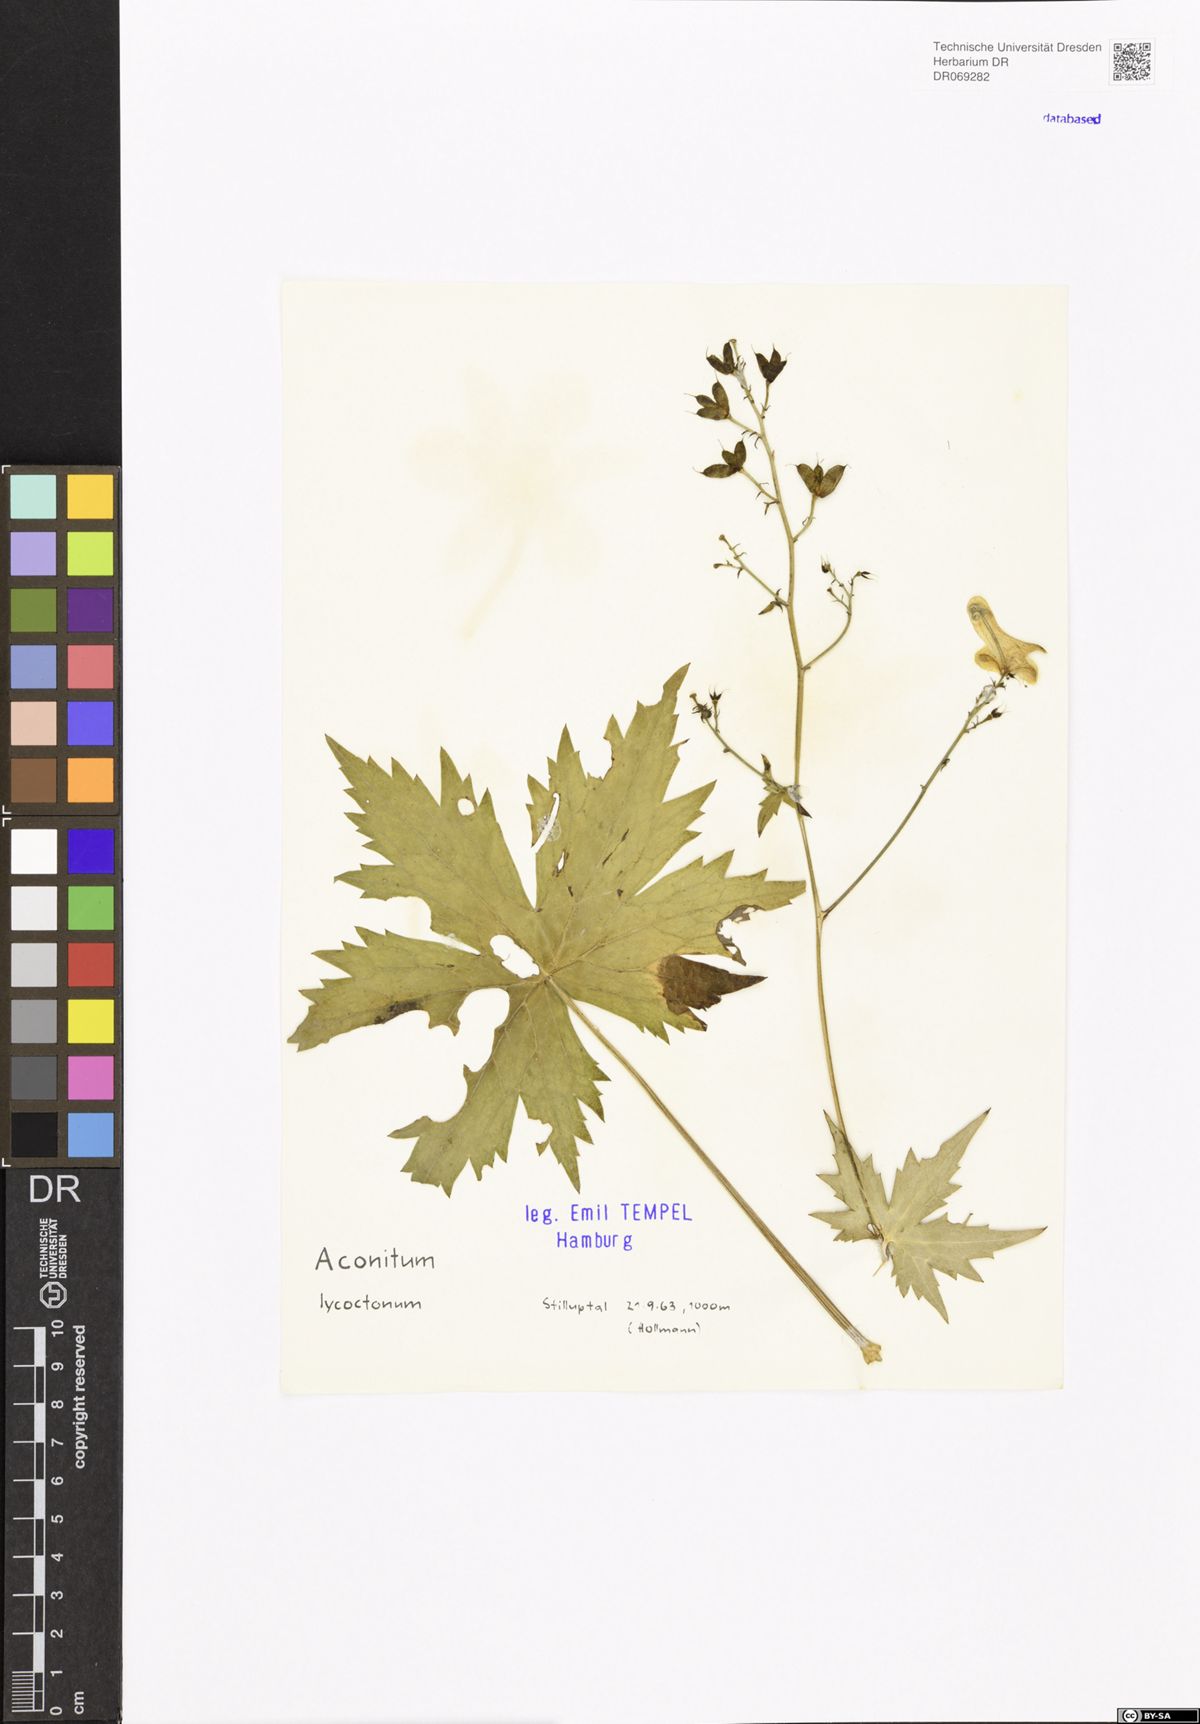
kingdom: Plantae
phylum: Tracheophyta
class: Magnoliopsida
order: Ranunculales
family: Ranunculaceae
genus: Aconitum
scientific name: Aconitum lycoctonum
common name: Wolf's-bane
